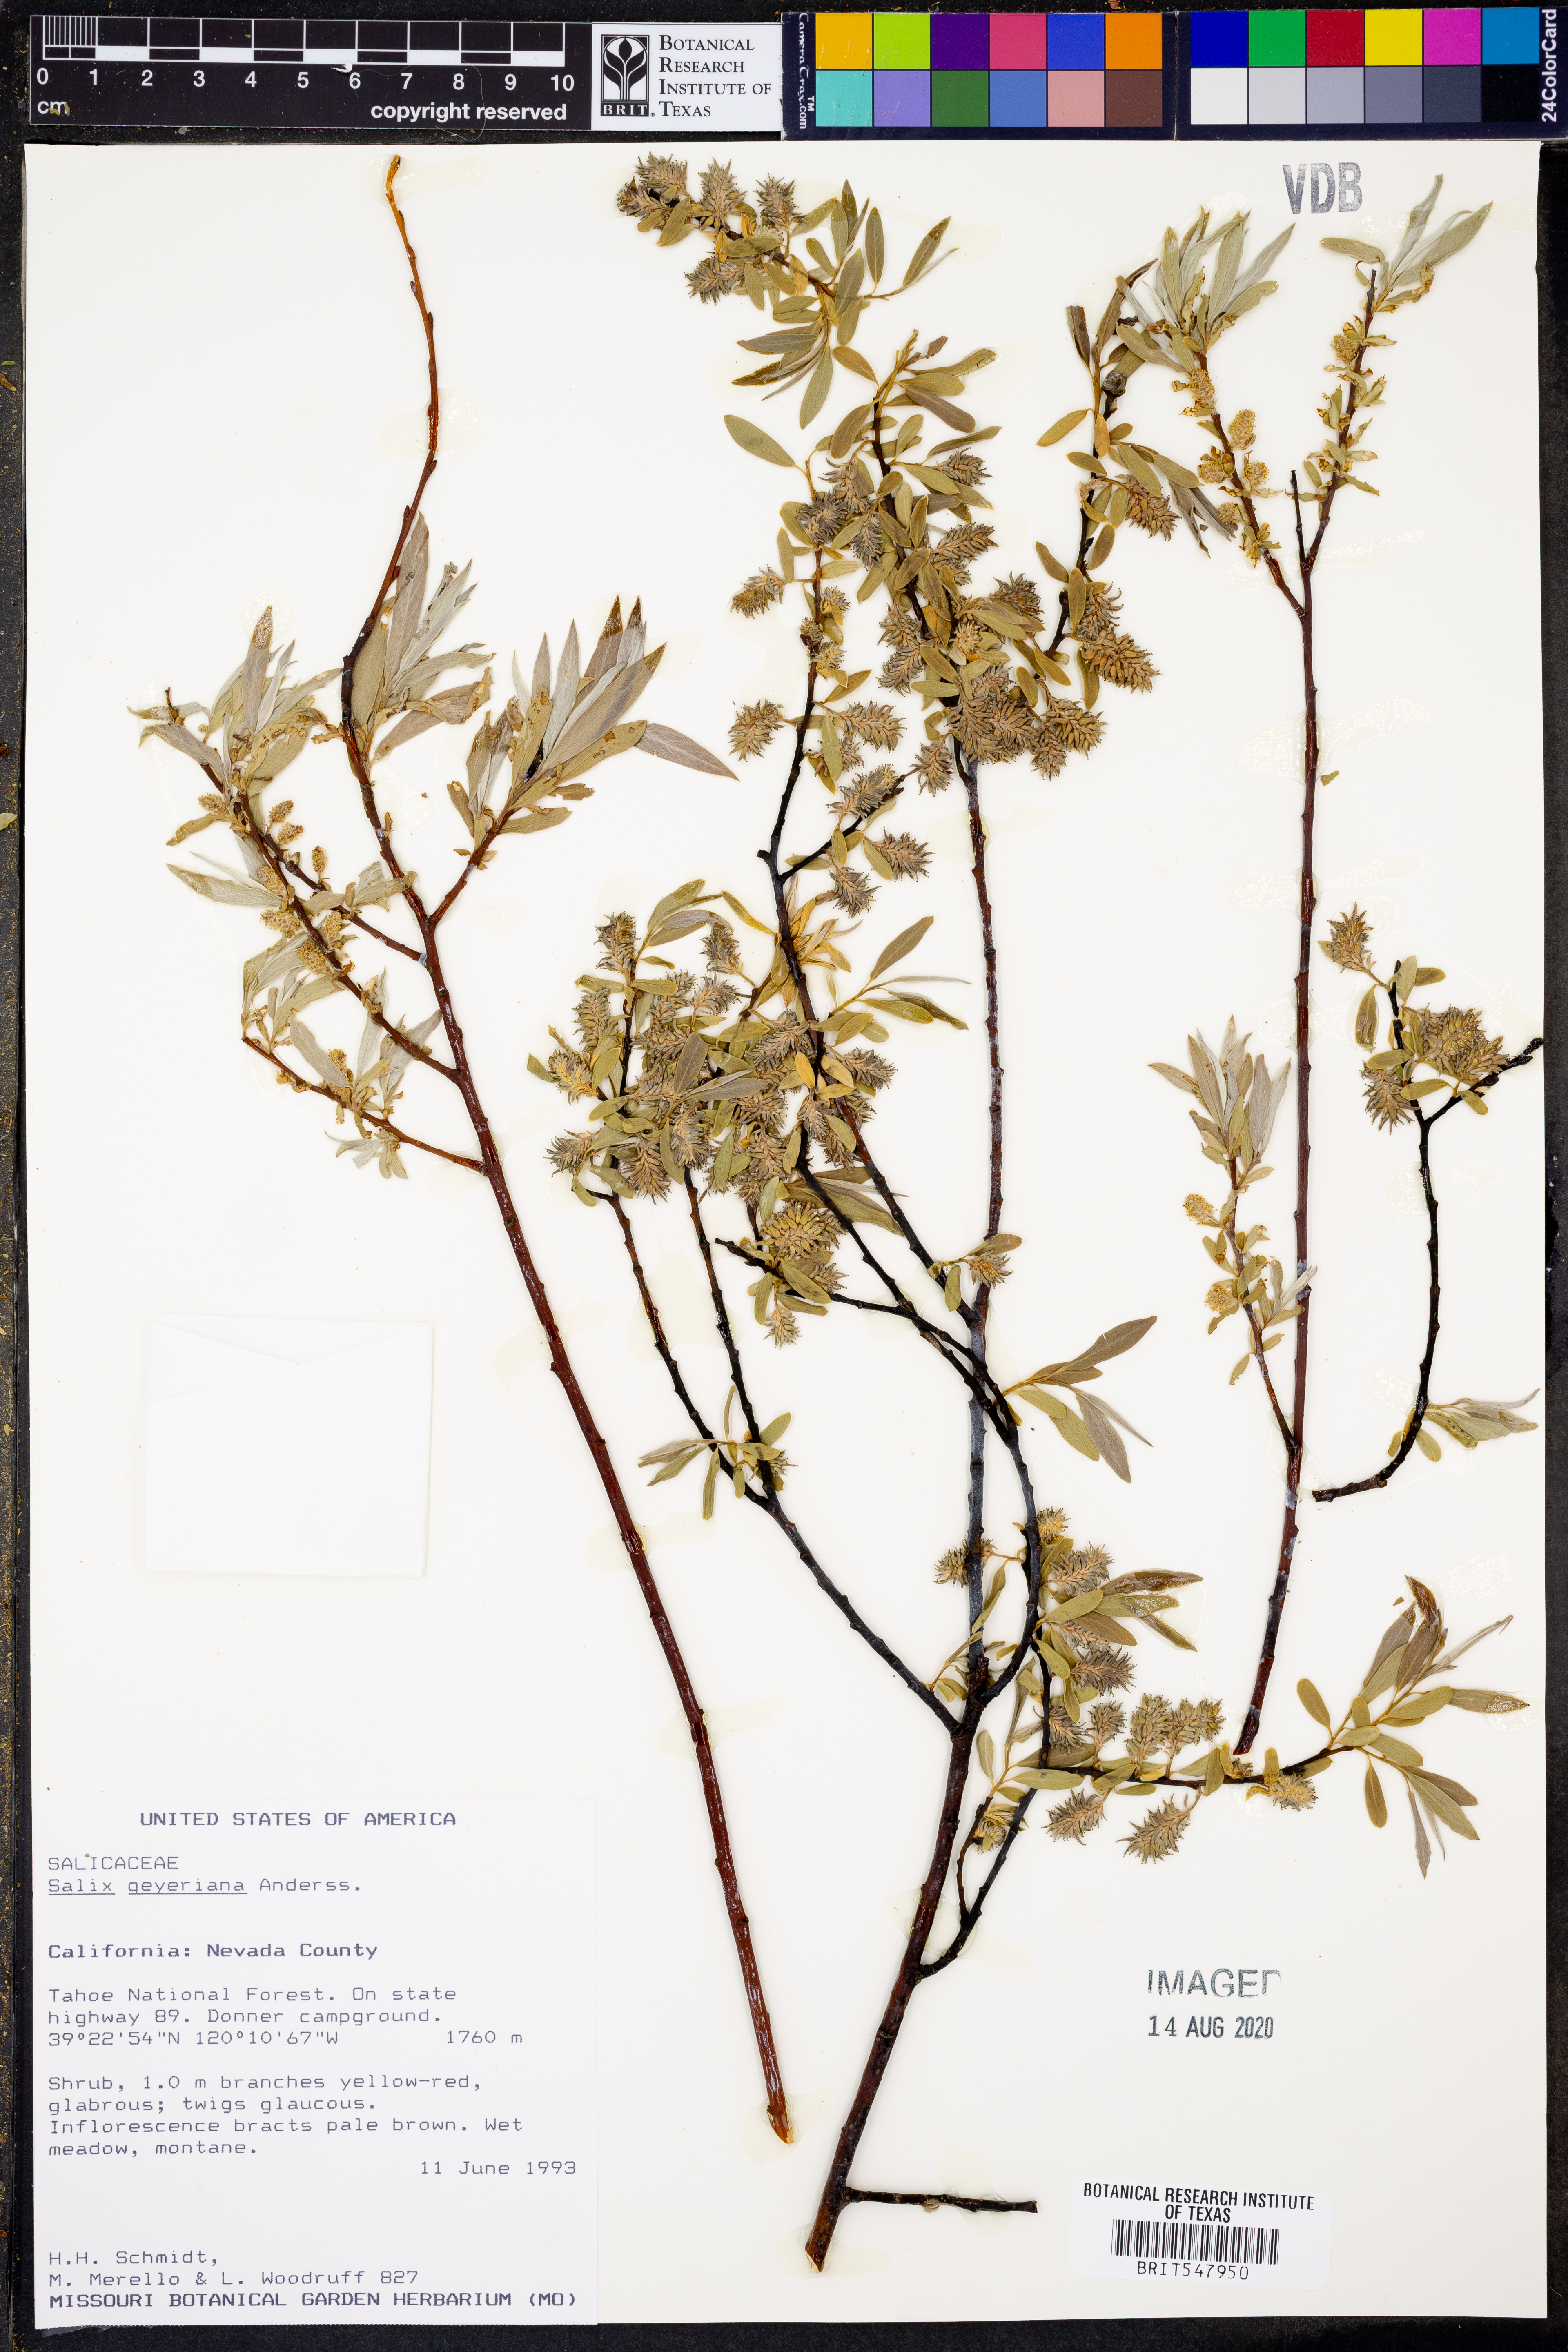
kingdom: Plantae
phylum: Tracheophyta
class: Magnoliopsida
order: Malpighiales
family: Salicaceae
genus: Salix
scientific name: Salix geyeriana
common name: Geyer's willow
